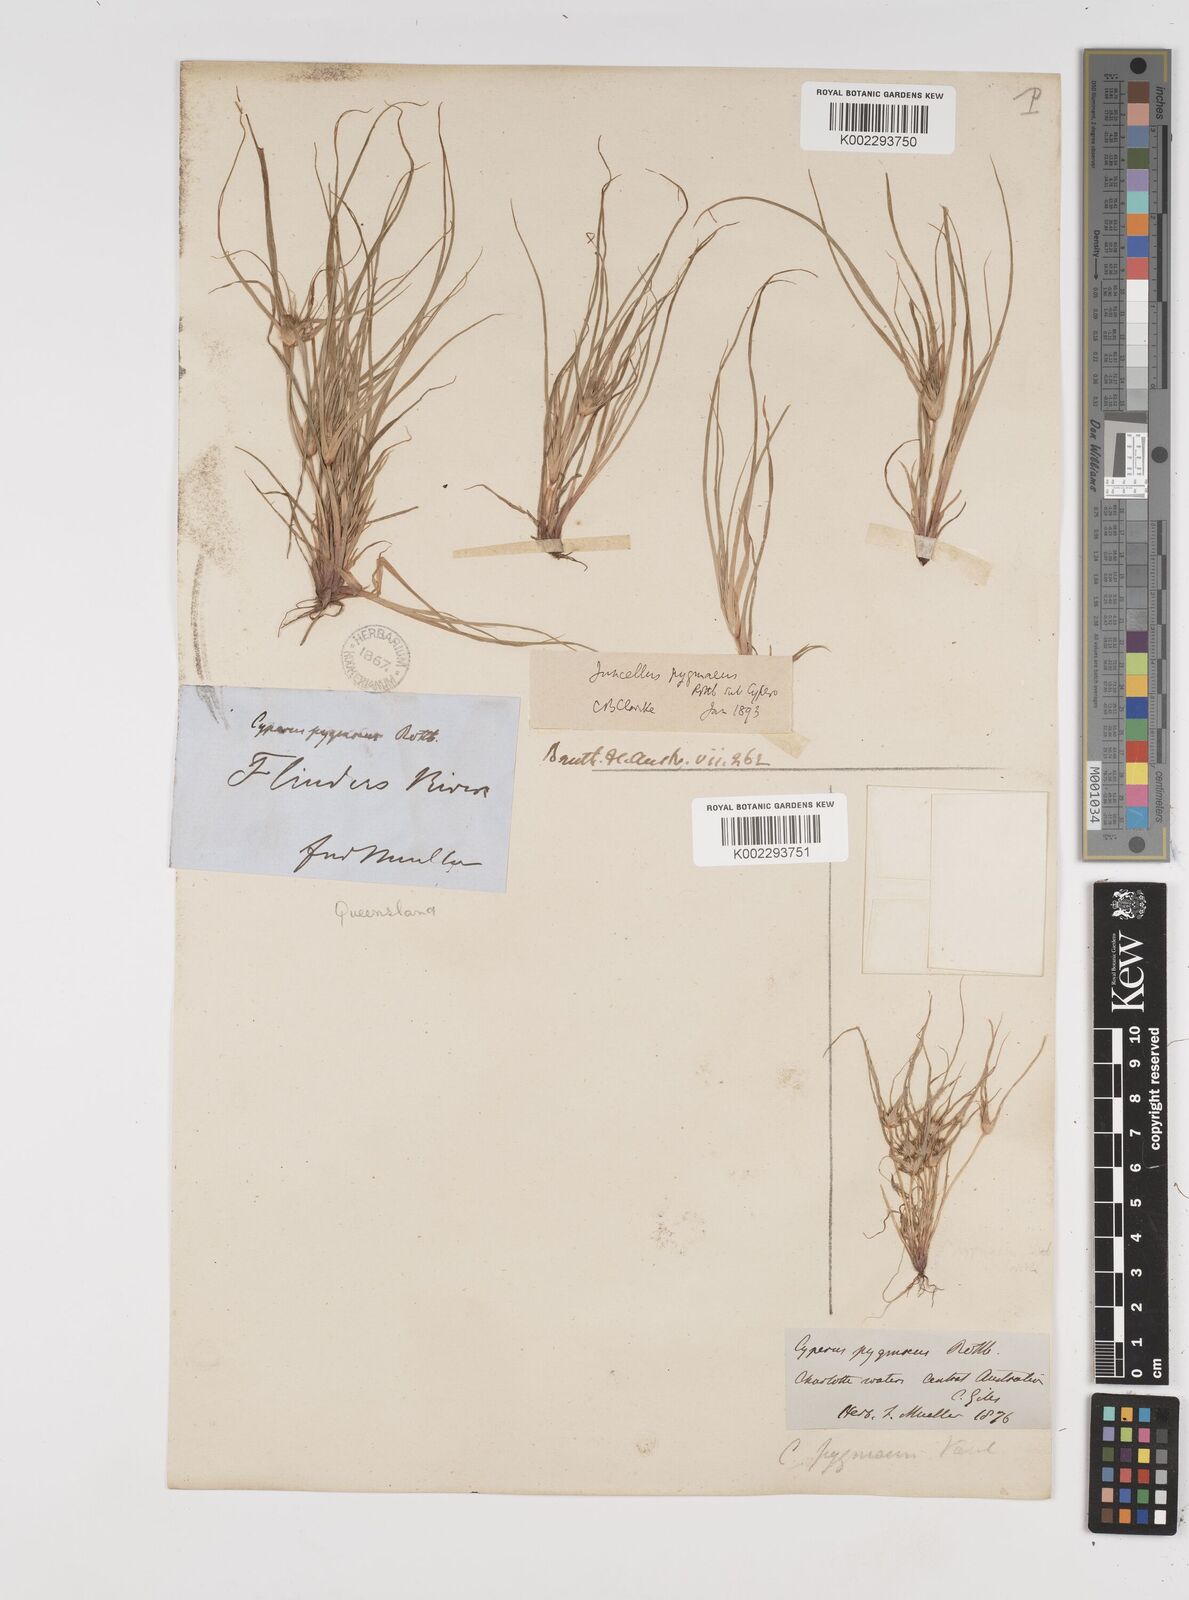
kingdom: Plantae
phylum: Tracheophyta
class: Liliopsida
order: Poales
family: Cyperaceae
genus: Cyperus
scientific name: Cyperus michelianus
